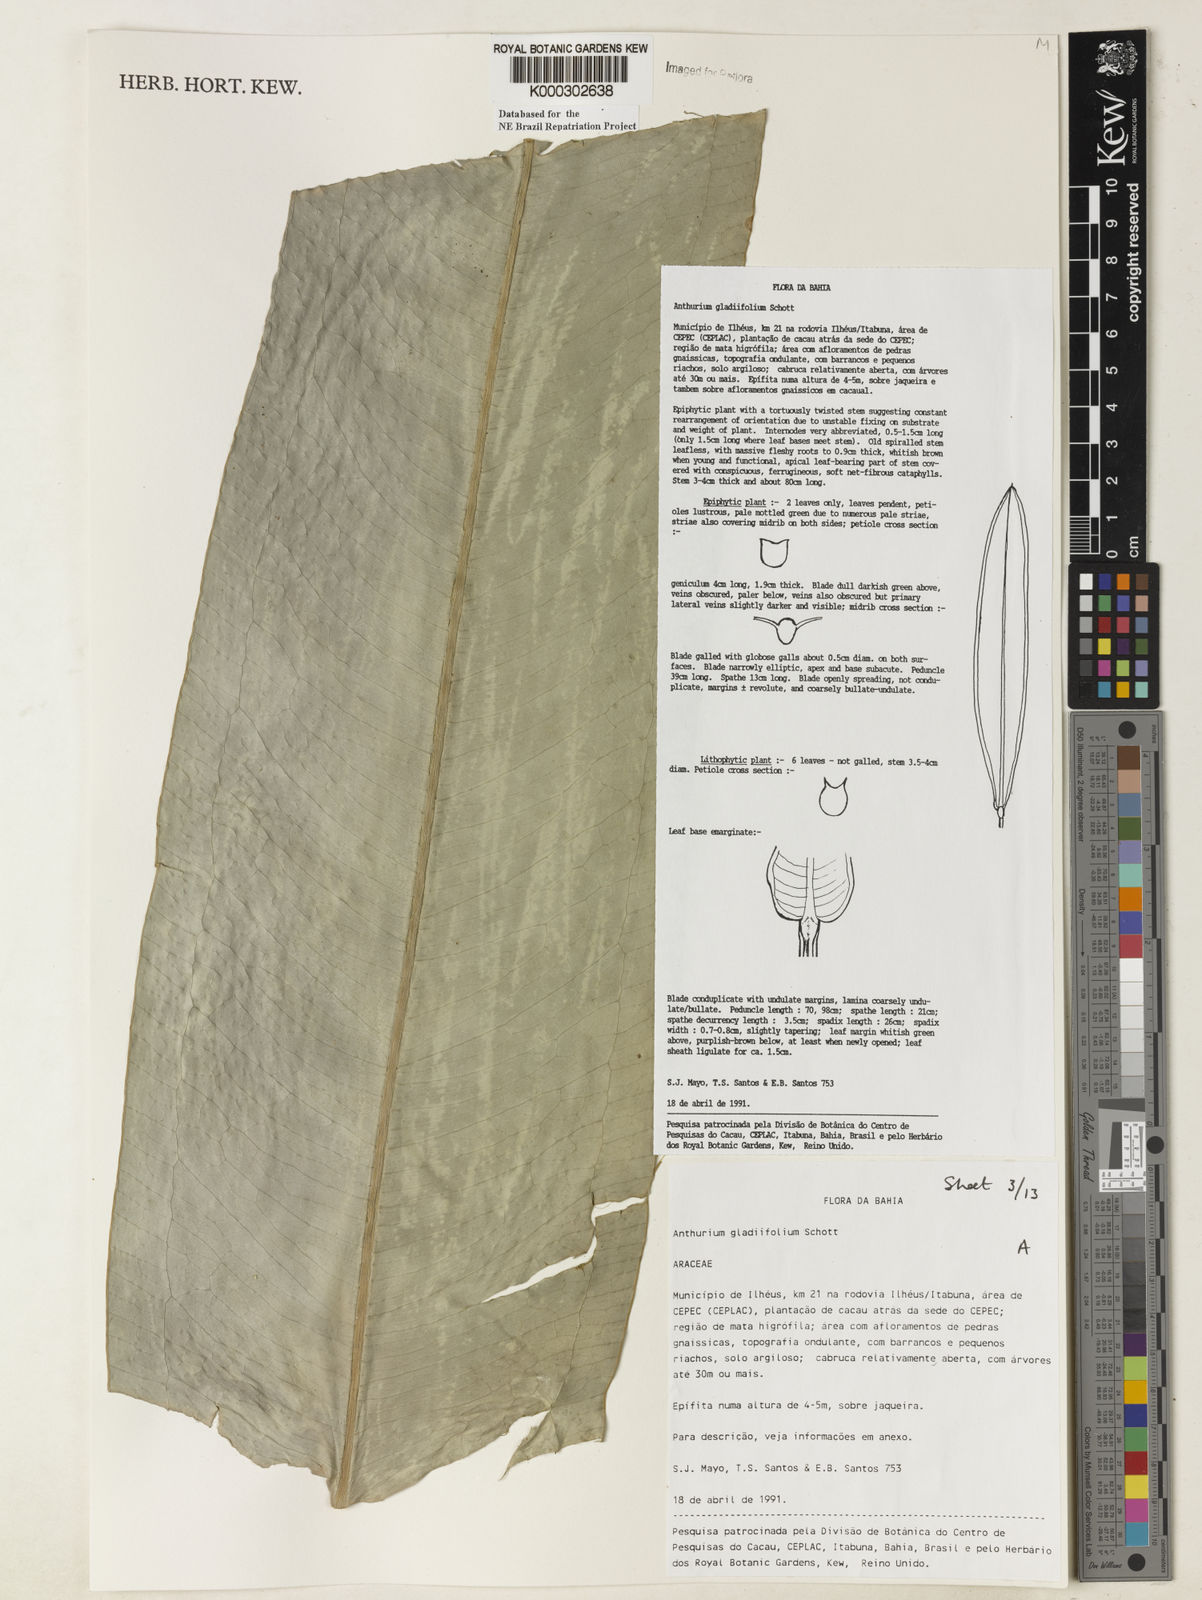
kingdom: Plantae
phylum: Tracheophyta
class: Liliopsida
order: Alismatales
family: Araceae
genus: Anthurium
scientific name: Anthurium gladiifolium
